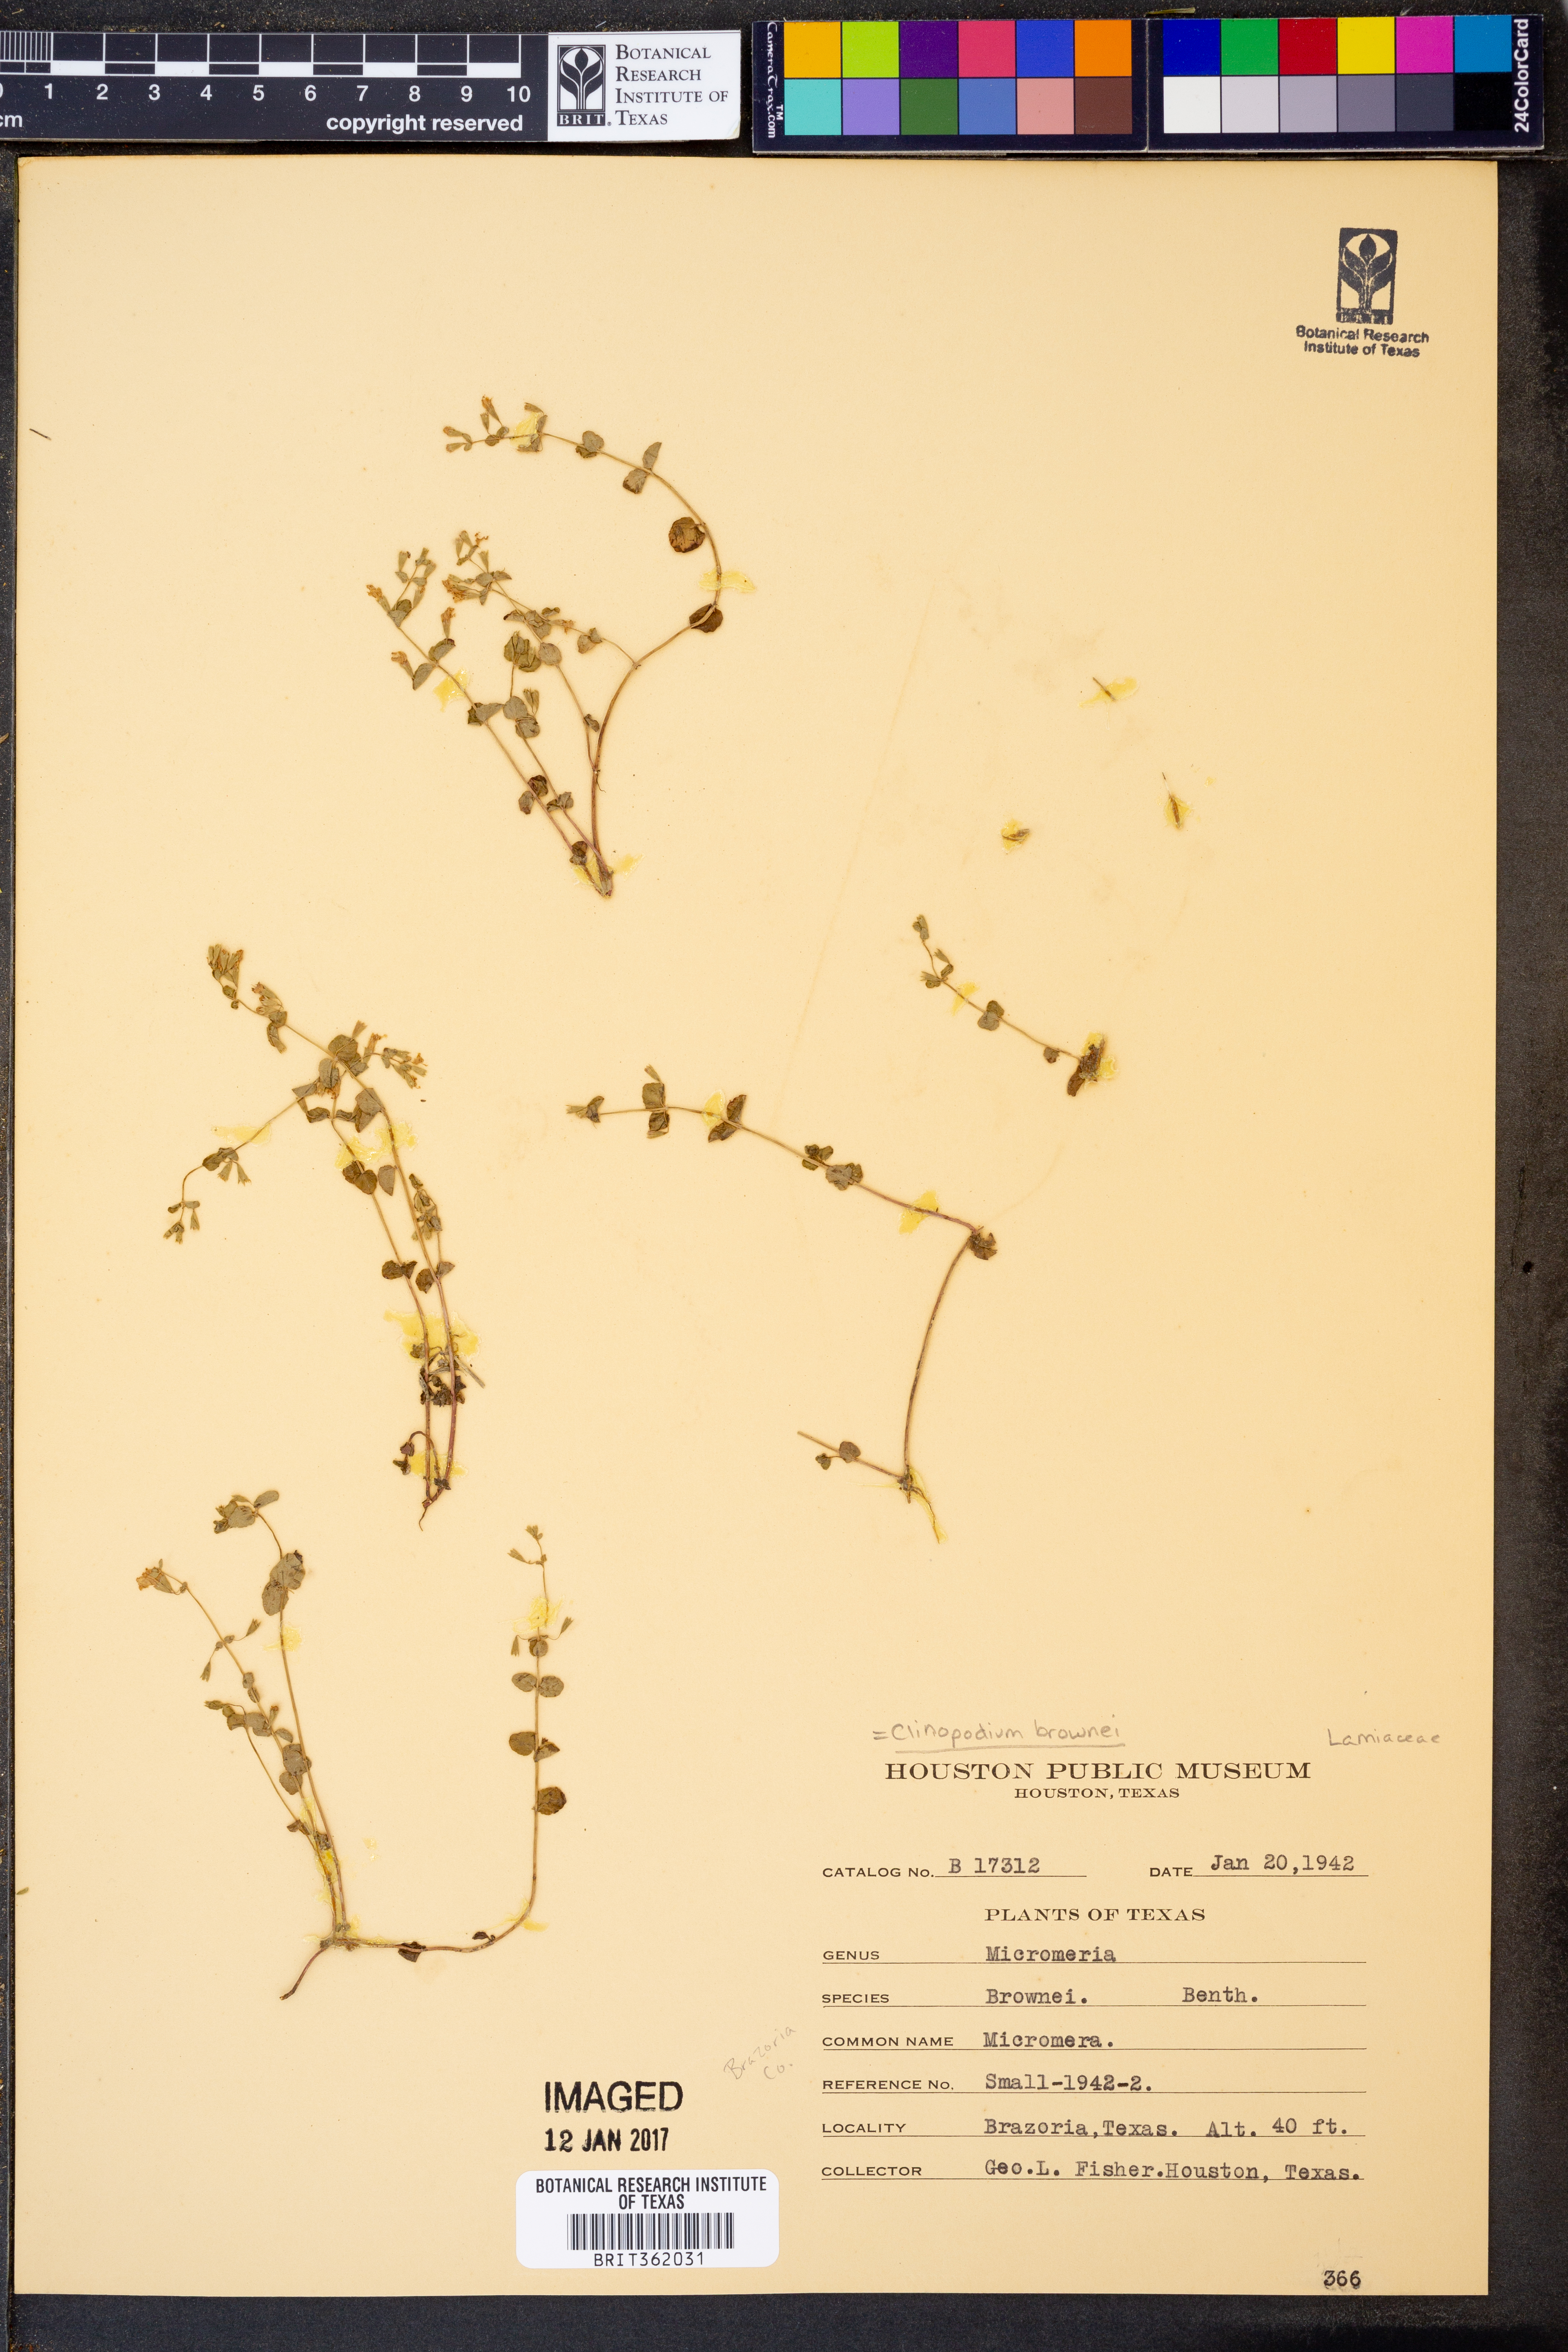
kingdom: Plantae
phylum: Tracheophyta
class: Magnoliopsida
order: Lamiales
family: Lamiaceae
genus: Clinopodium
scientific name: Clinopodium brownei
